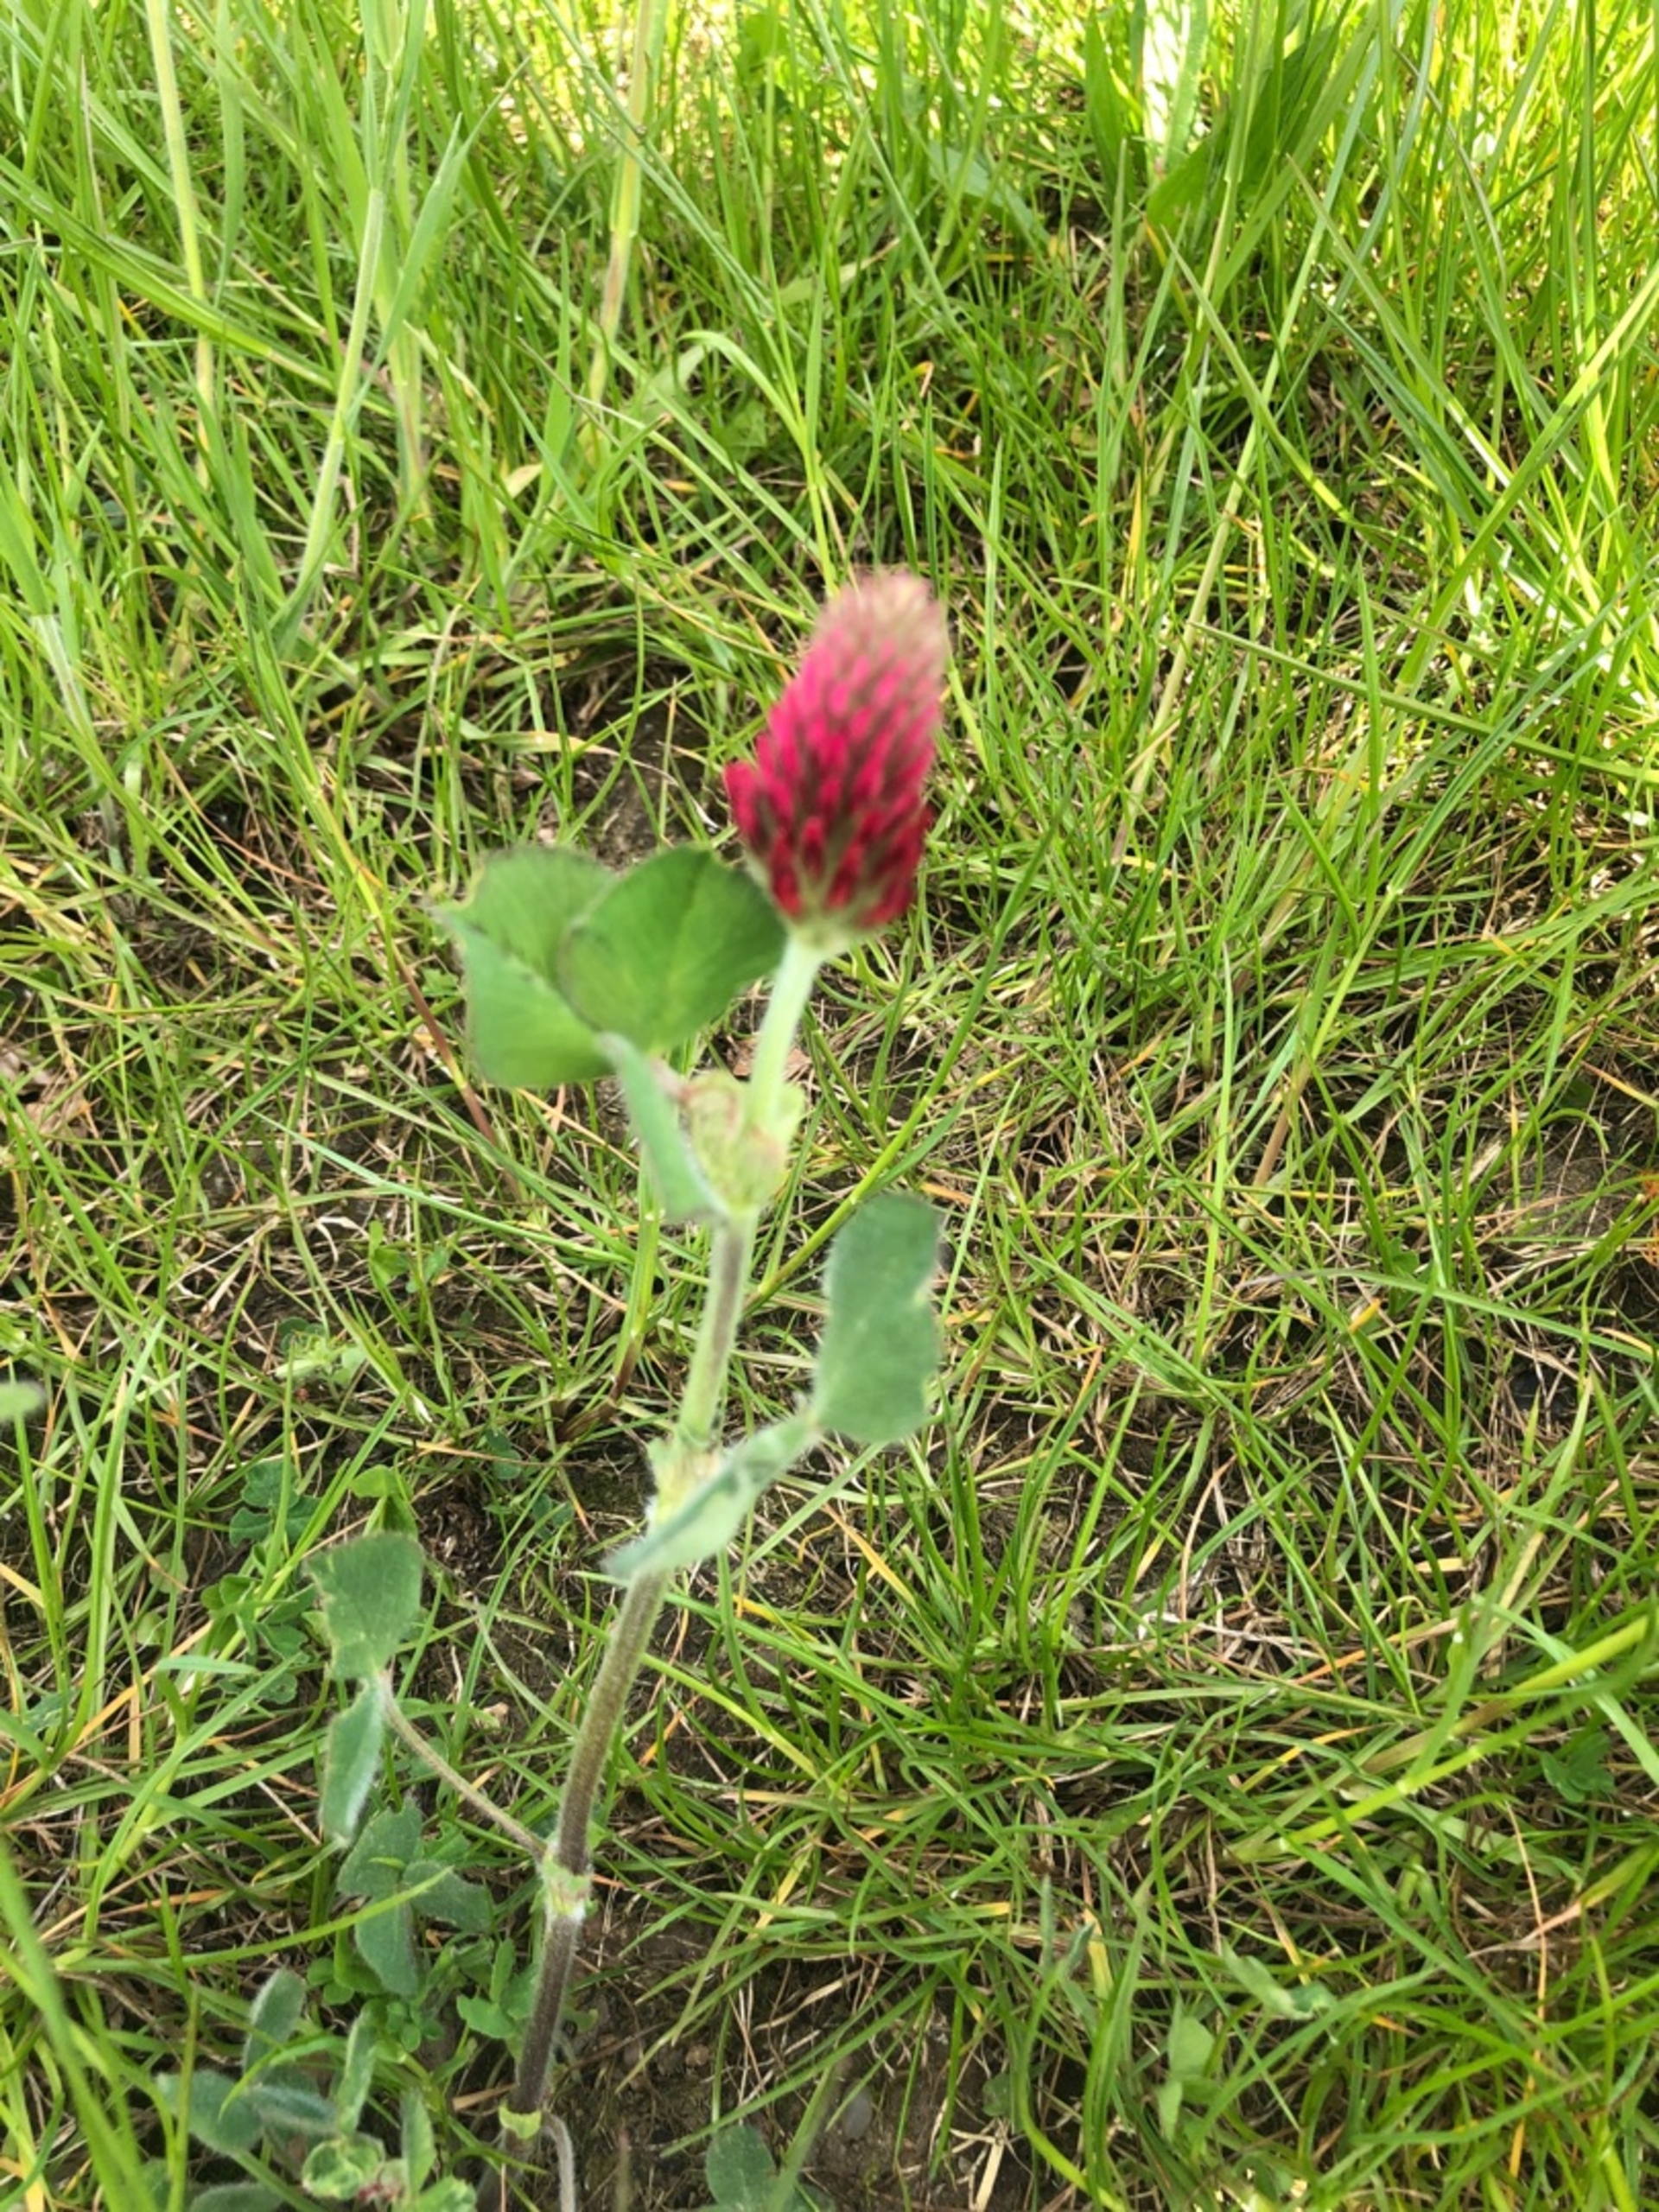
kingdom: Plantae
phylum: Tracheophyta
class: Magnoliopsida
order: Fabales
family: Fabaceae
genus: Trifolium
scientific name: Trifolium incarnatum
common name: Blod-kløver
